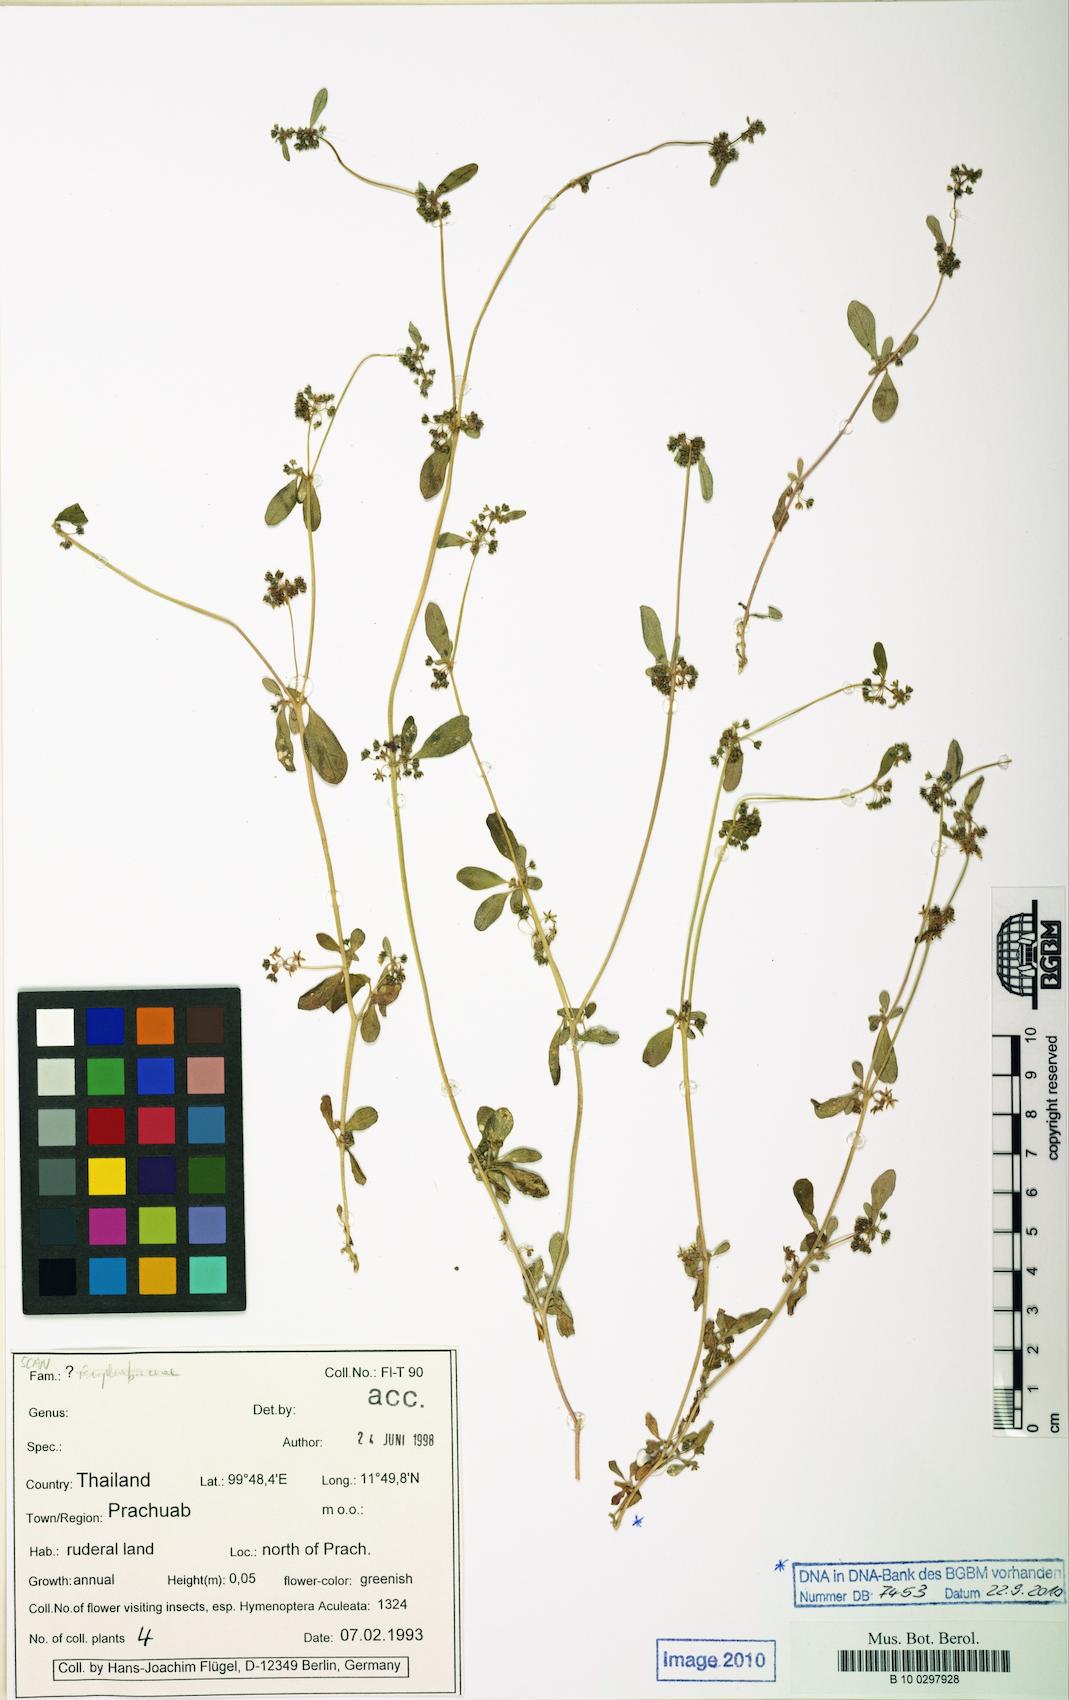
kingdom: Plantae
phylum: Tracheophyta
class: Magnoliopsida
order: Caryophyllales
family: Portulacaceae
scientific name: Portulacaceae
